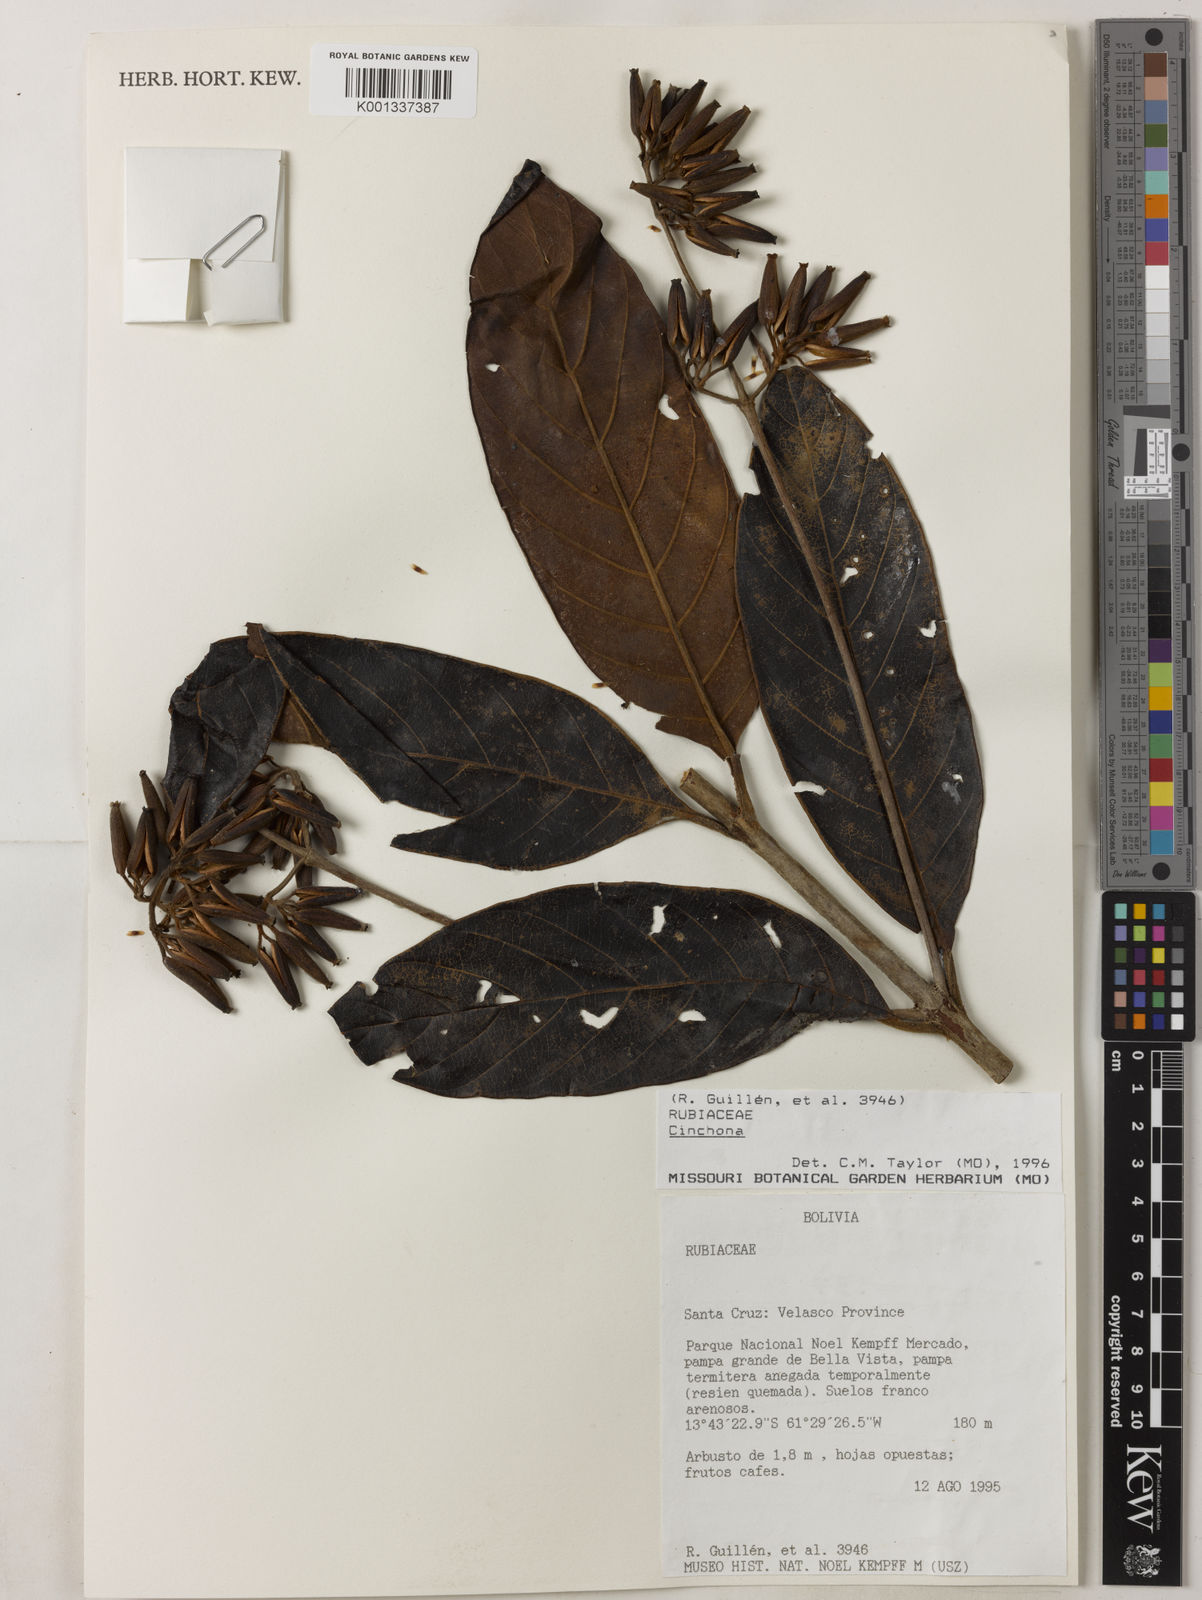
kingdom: Plantae
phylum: Tracheophyta
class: Magnoliopsida
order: Gentianales
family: Rubiaceae
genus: Cinchona
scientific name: Cinchona
